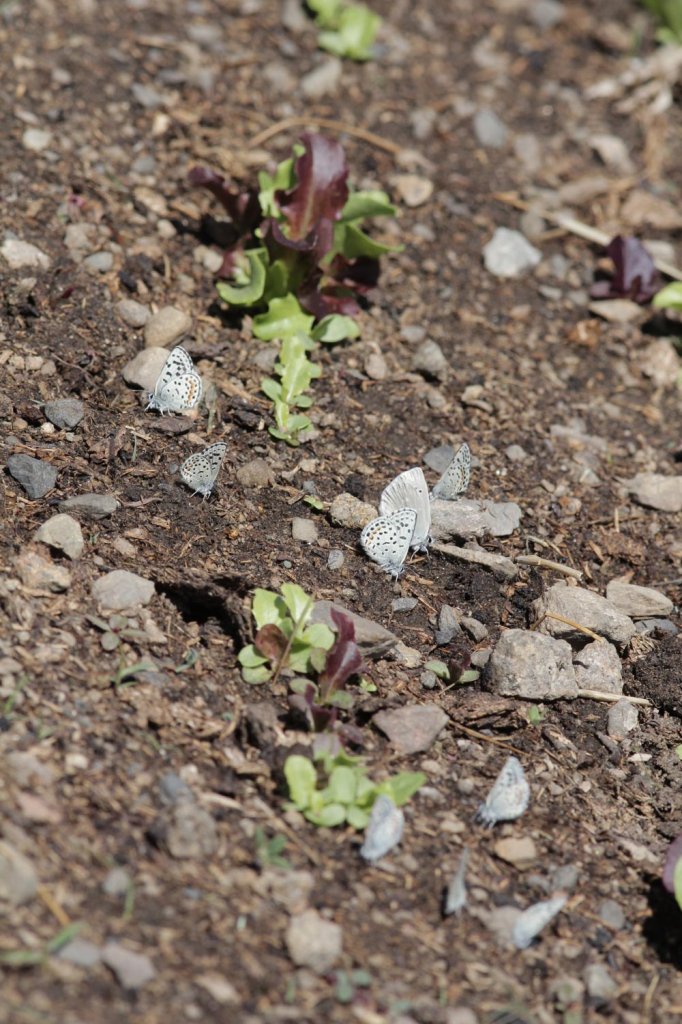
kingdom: Animalia
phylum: Arthropoda
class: Insecta
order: Lepidoptera
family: Lycaenidae
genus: Euphilotes
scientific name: Euphilotes
